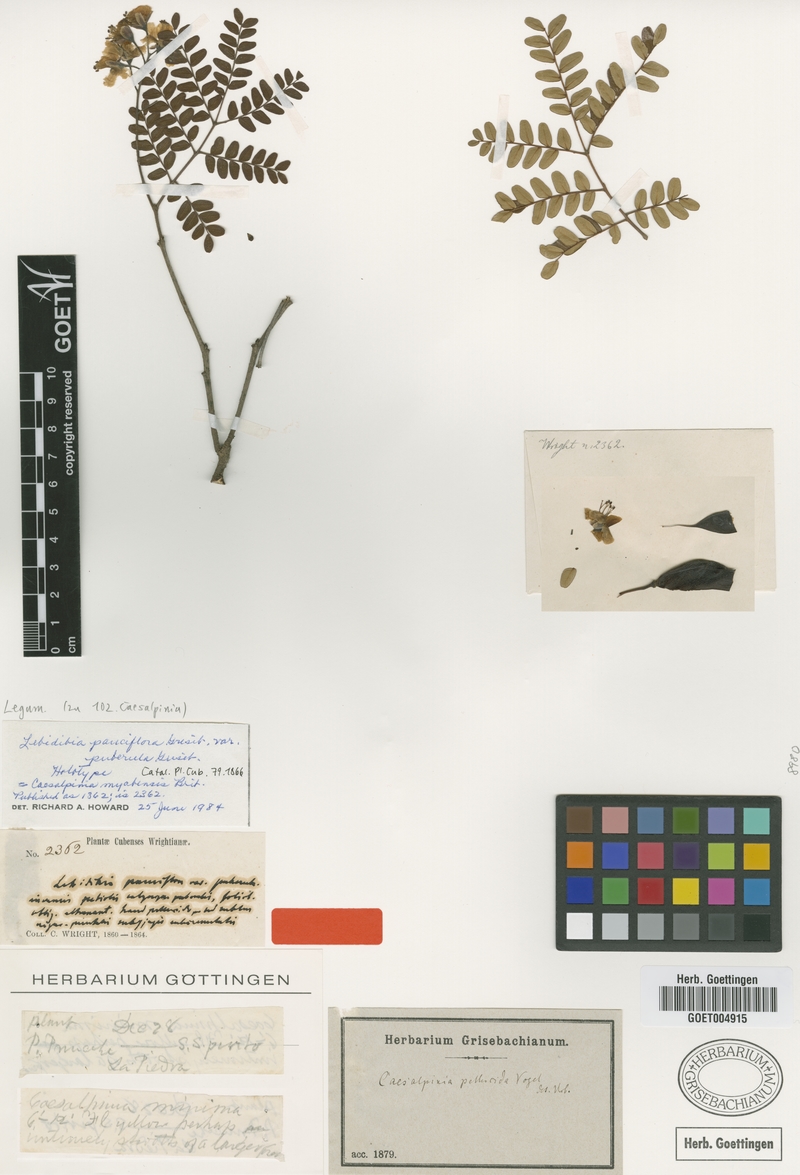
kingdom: Plantae
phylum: Tracheophyta
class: Magnoliopsida
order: Fabales
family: Fabaceae
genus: Cenostigma
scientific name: Cenostigma myabense
